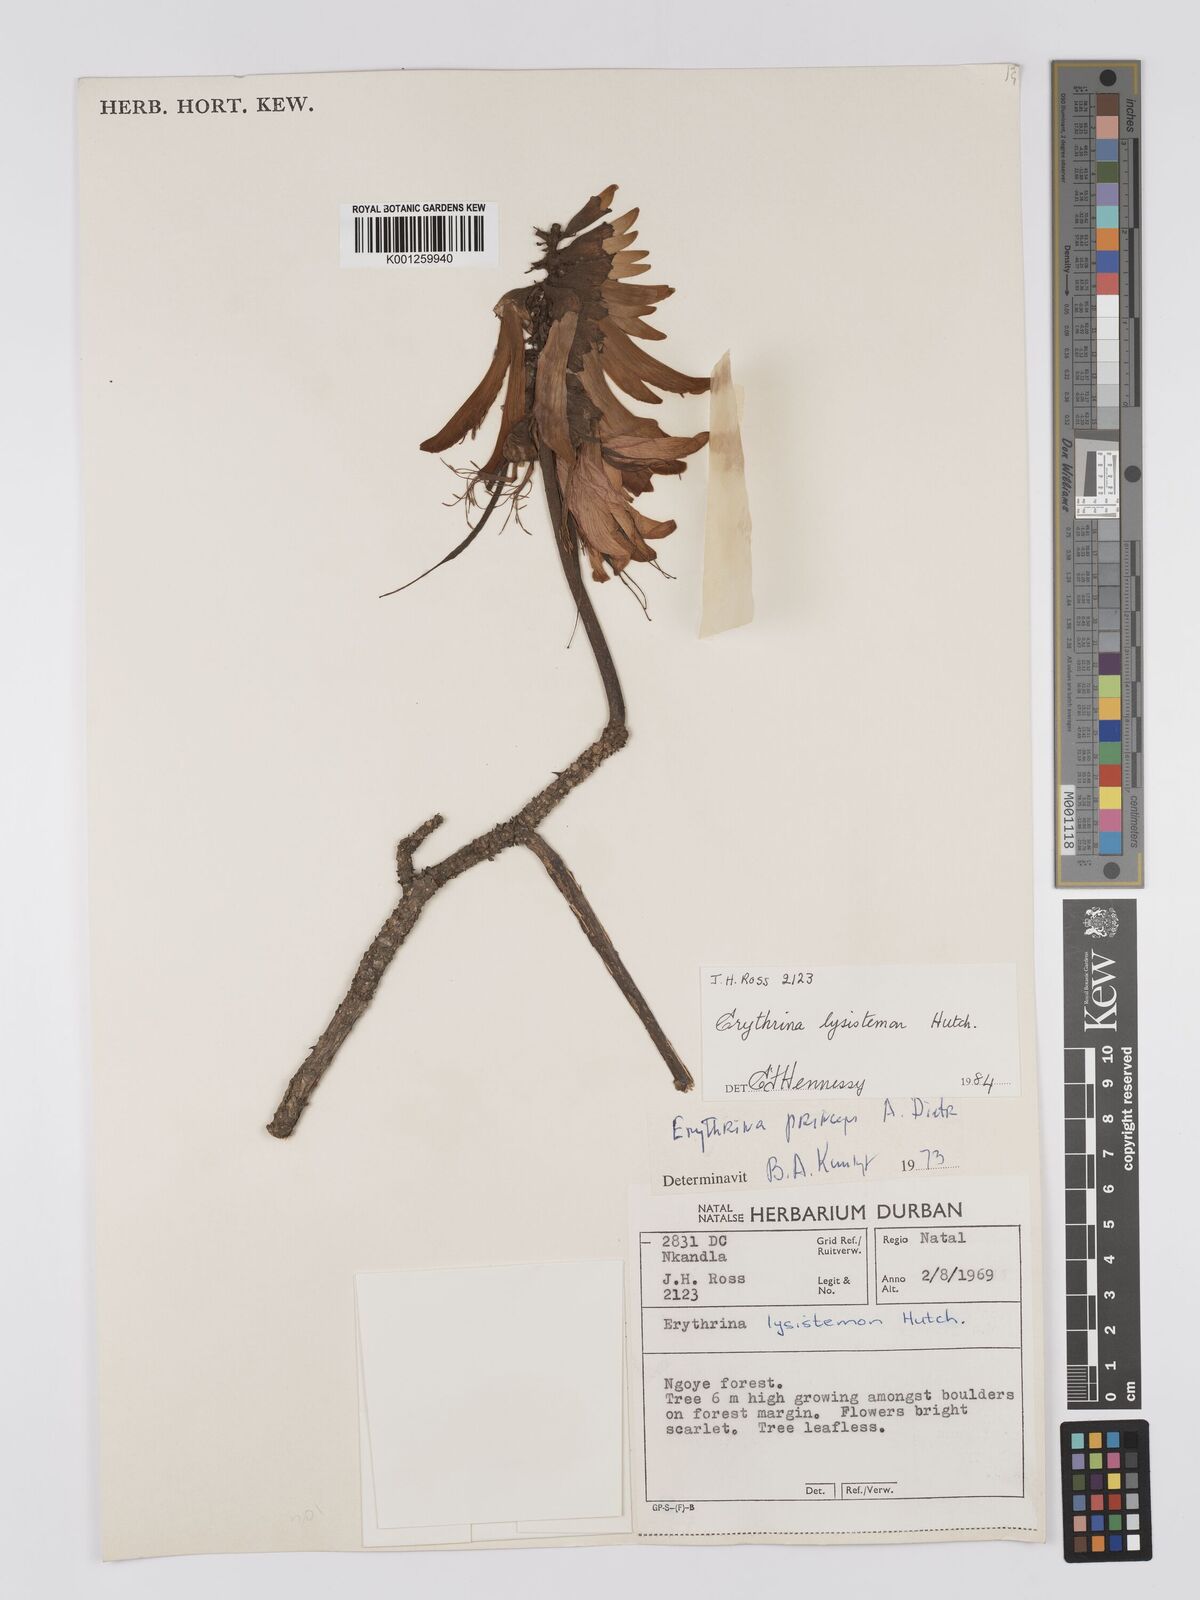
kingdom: Plantae
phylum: Tracheophyta
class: Magnoliopsida
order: Fabales
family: Fabaceae
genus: Erythrina
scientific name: Erythrina lysistemon
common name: Common coral tree
